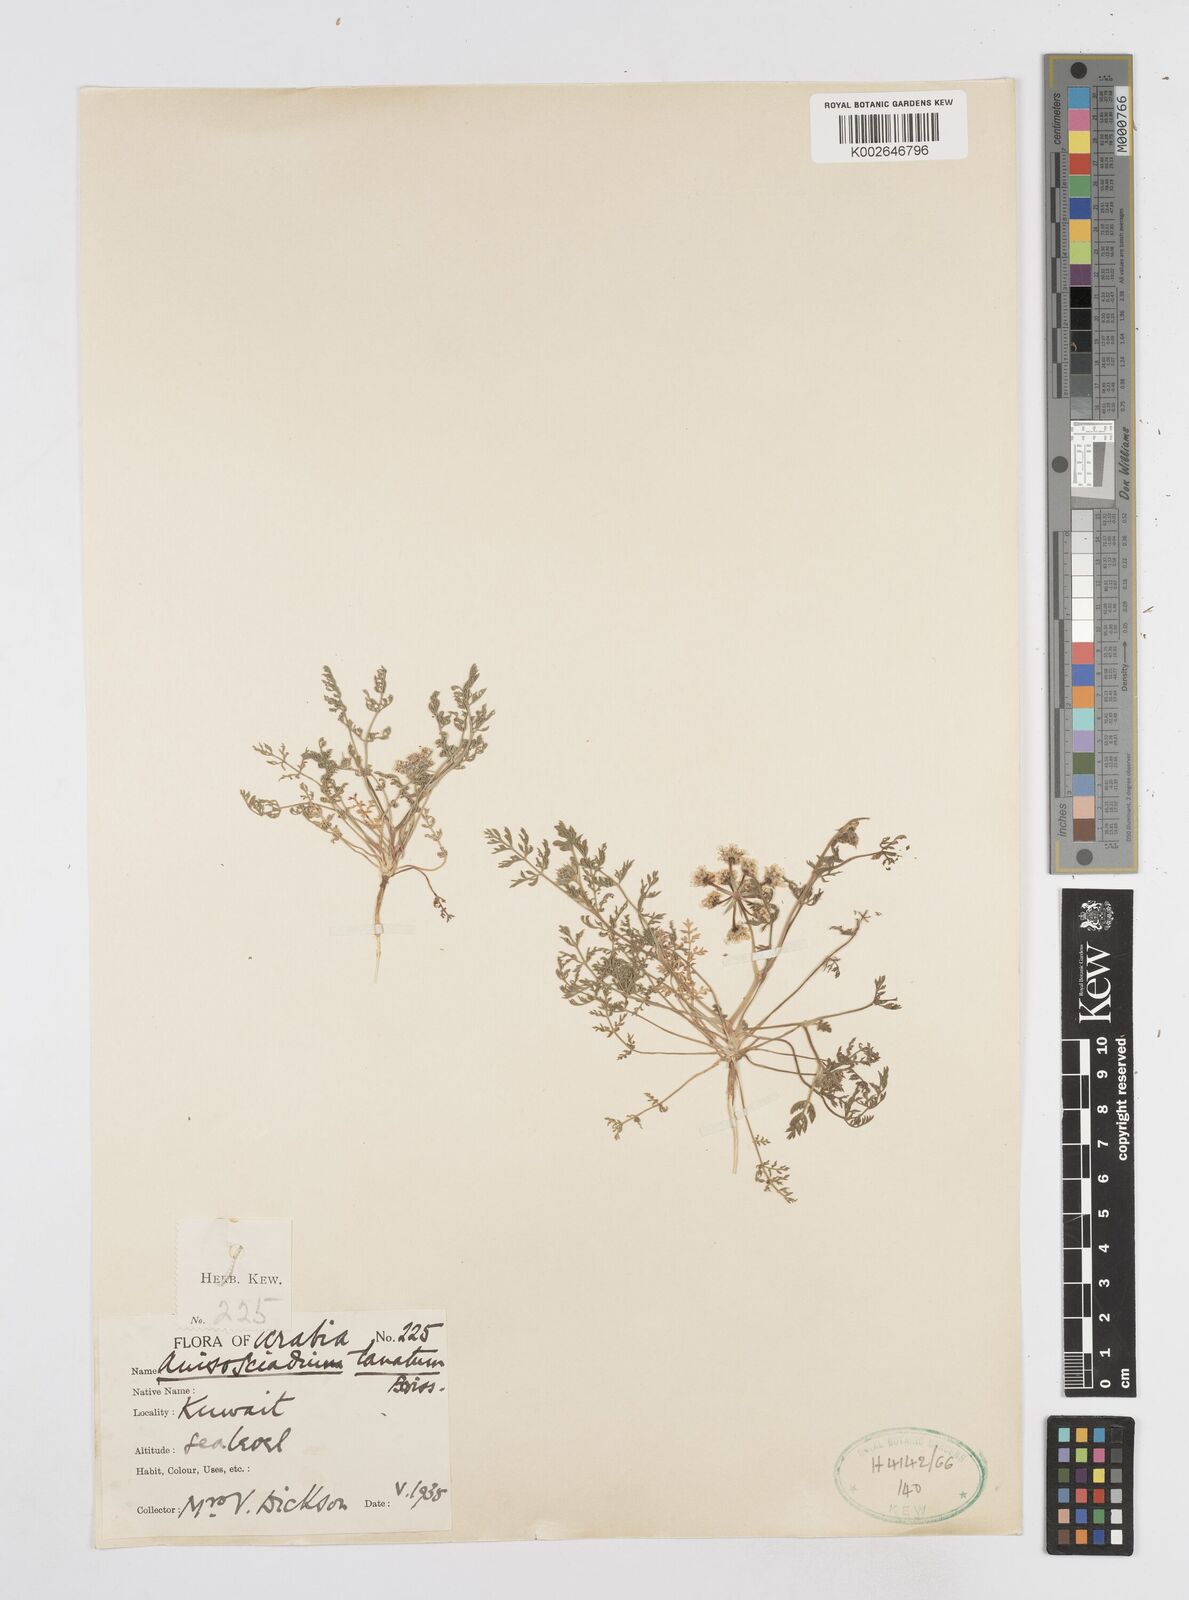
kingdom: Plantae
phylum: Tracheophyta
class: Magnoliopsida
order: Apiales
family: Apiaceae
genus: Anisosciadium
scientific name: Anisosciadium lanatum
